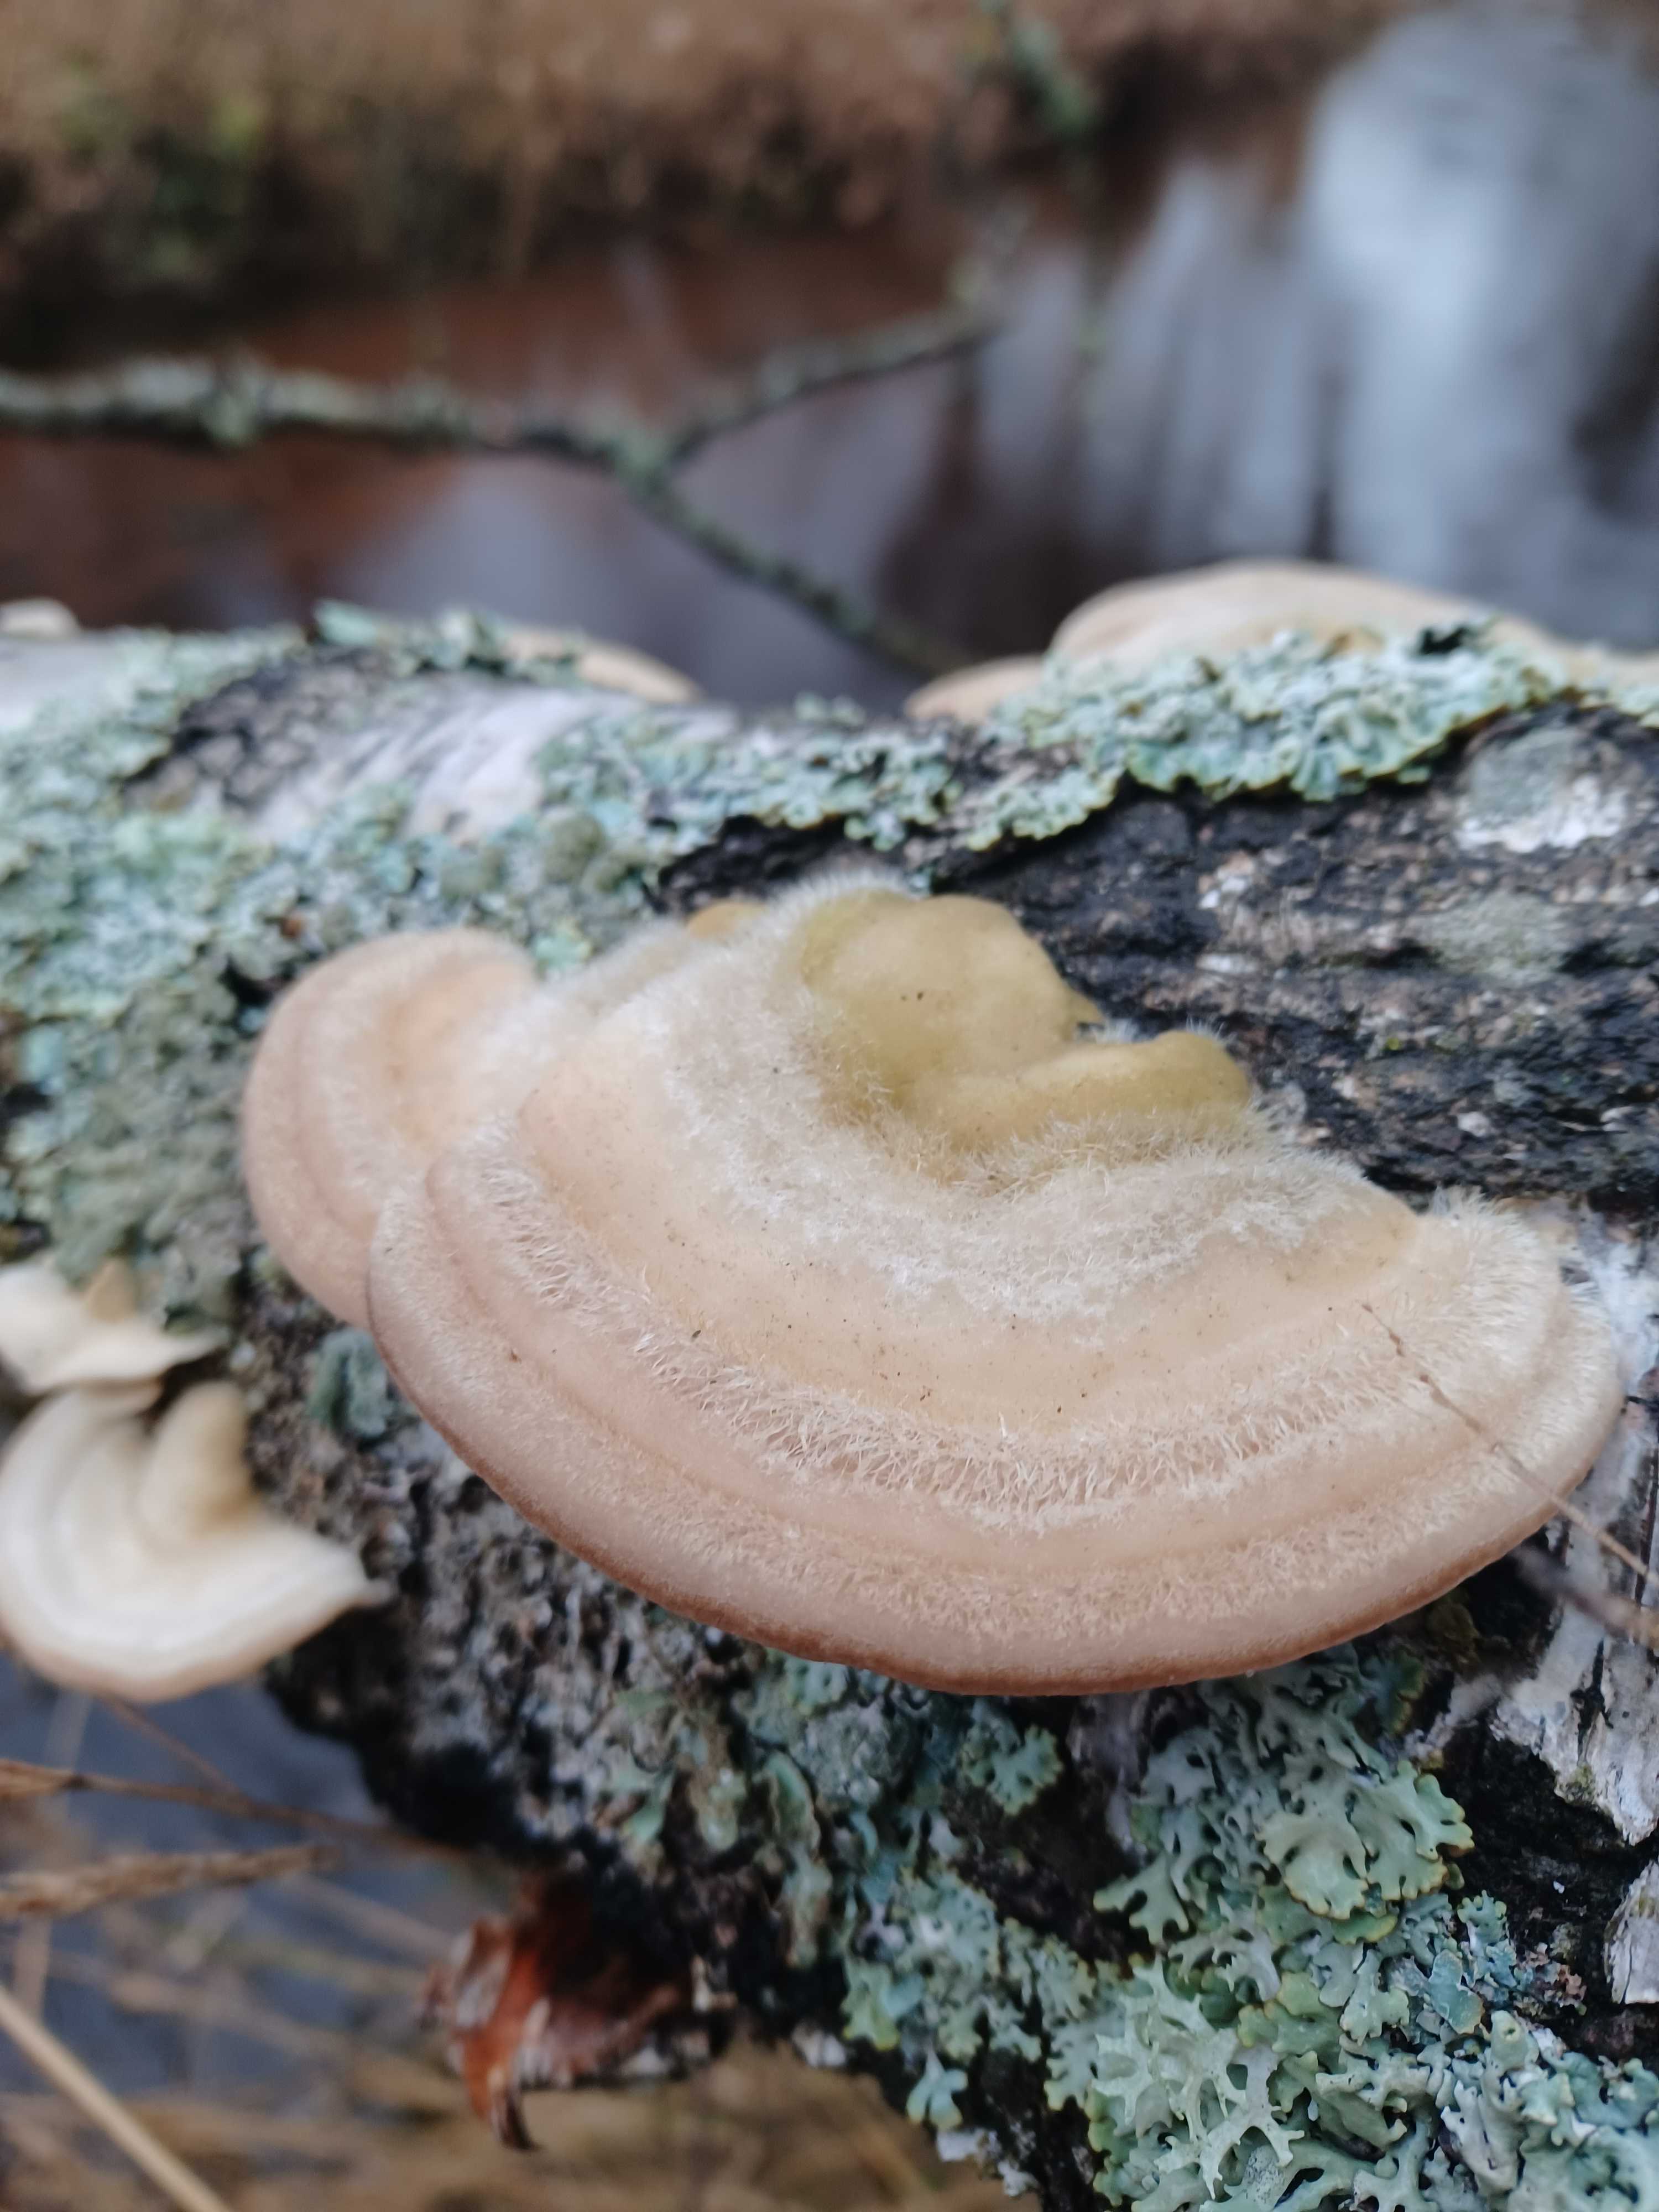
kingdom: Fungi
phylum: Basidiomycota
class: Agaricomycetes
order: Polyporales
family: Polyporaceae
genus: Trametes
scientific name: Trametes hirsuta
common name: håret læderporesvamp
